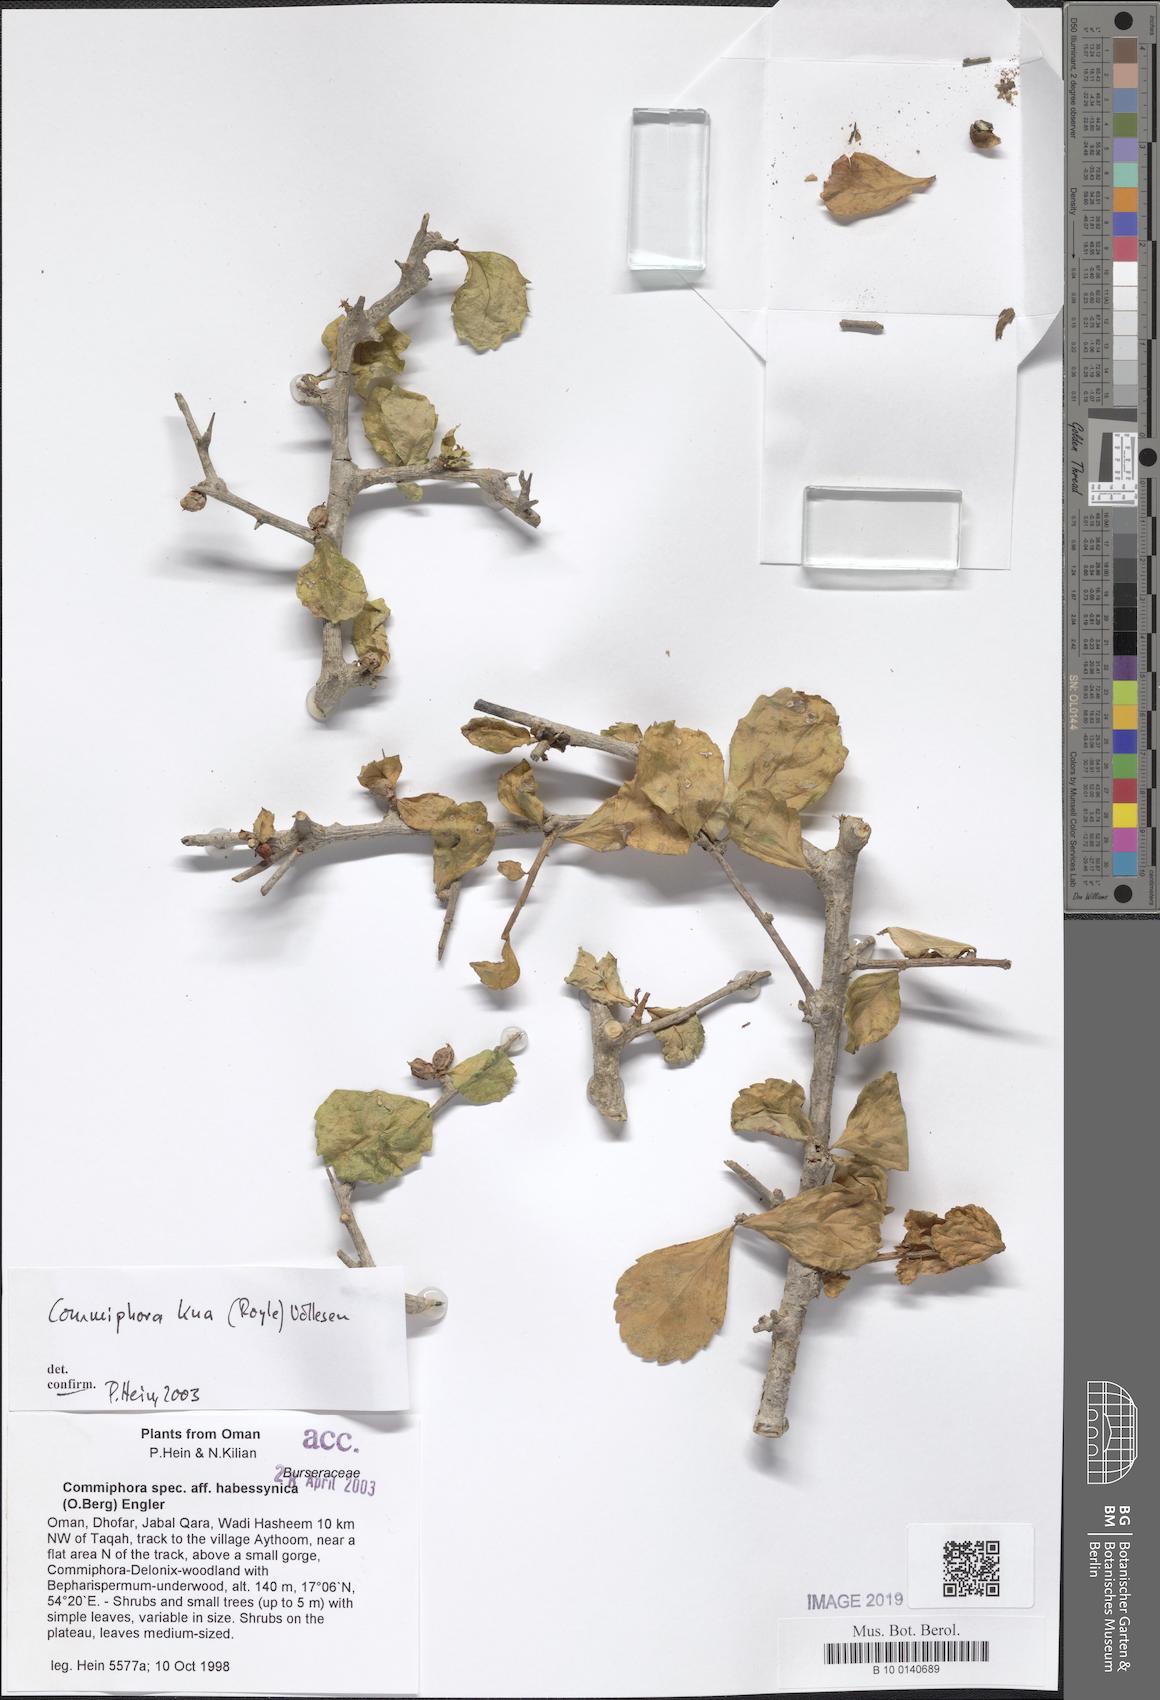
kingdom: Plantae
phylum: Tracheophyta
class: Magnoliopsida
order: Sapindales
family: Burseraceae
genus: Commiphora
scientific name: Commiphora kua
